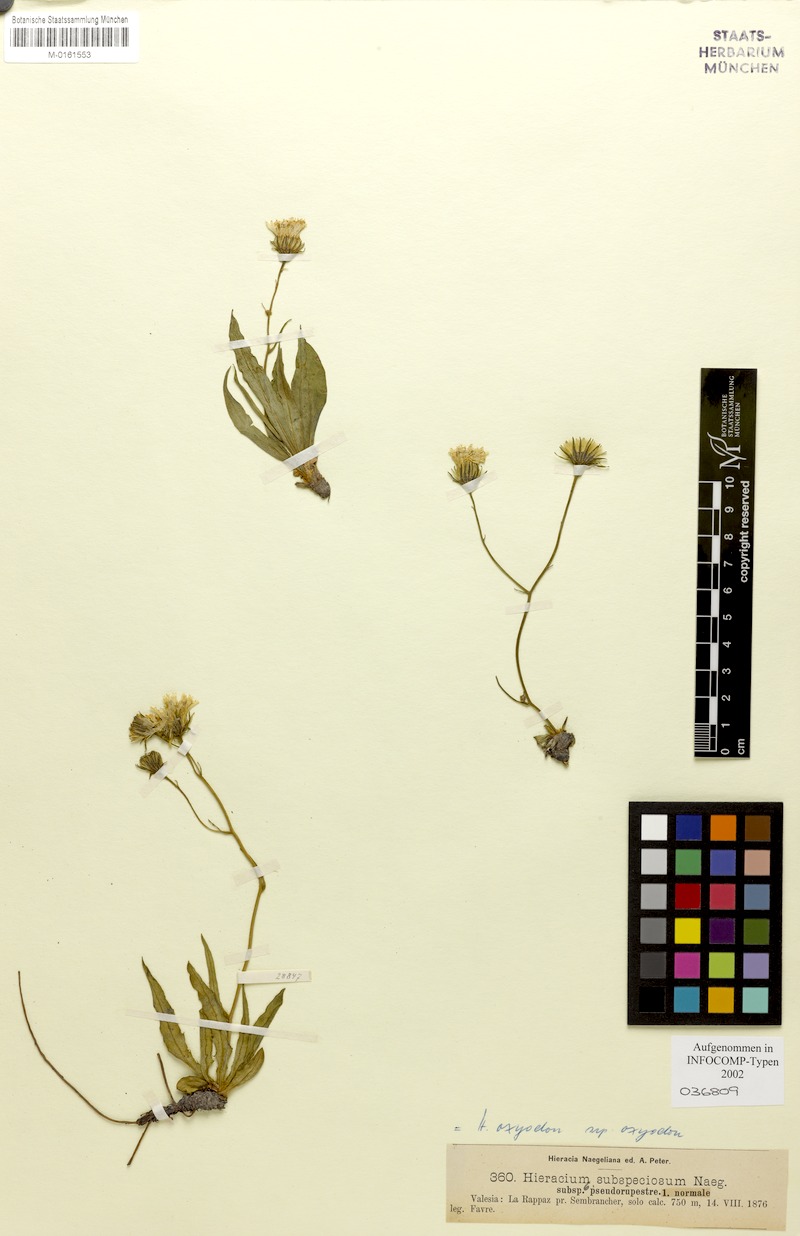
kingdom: Plantae
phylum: Tracheophyta
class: Magnoliopsida
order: Asterales
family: Asteraceae
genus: Hieracium
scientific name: Hieracium oxyodon
